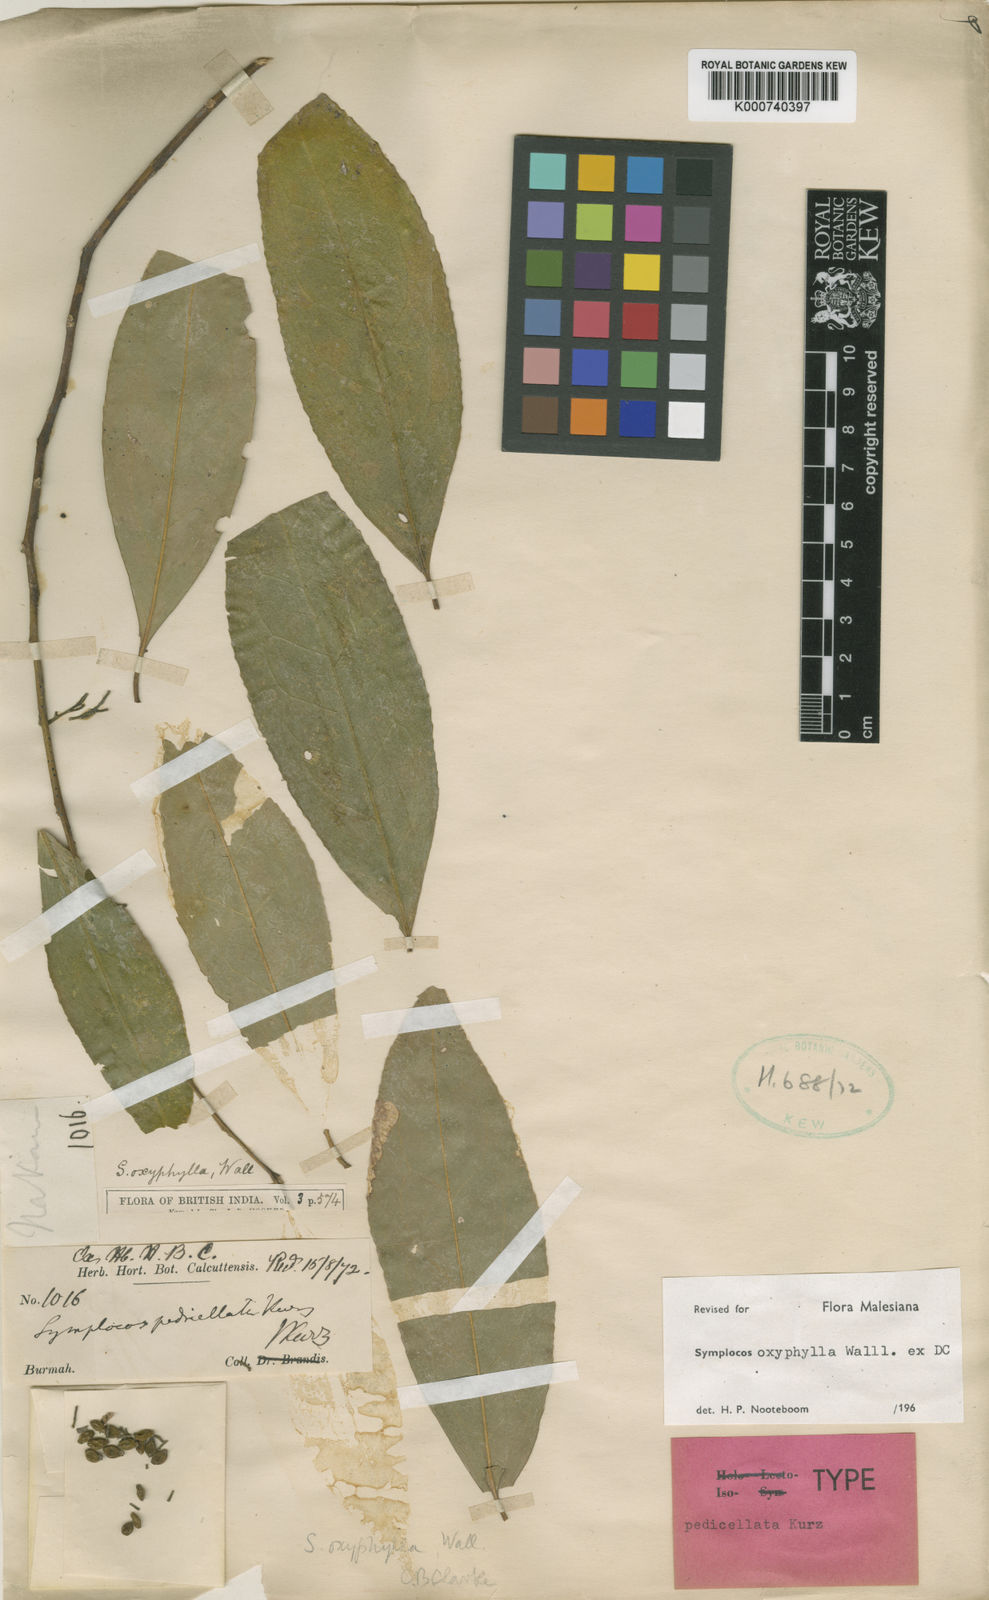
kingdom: Plantae
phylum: Tracheophyta
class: Magnoliopsida
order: Ericales
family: Symplocaceae
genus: Symplocos
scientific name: Symplocos
